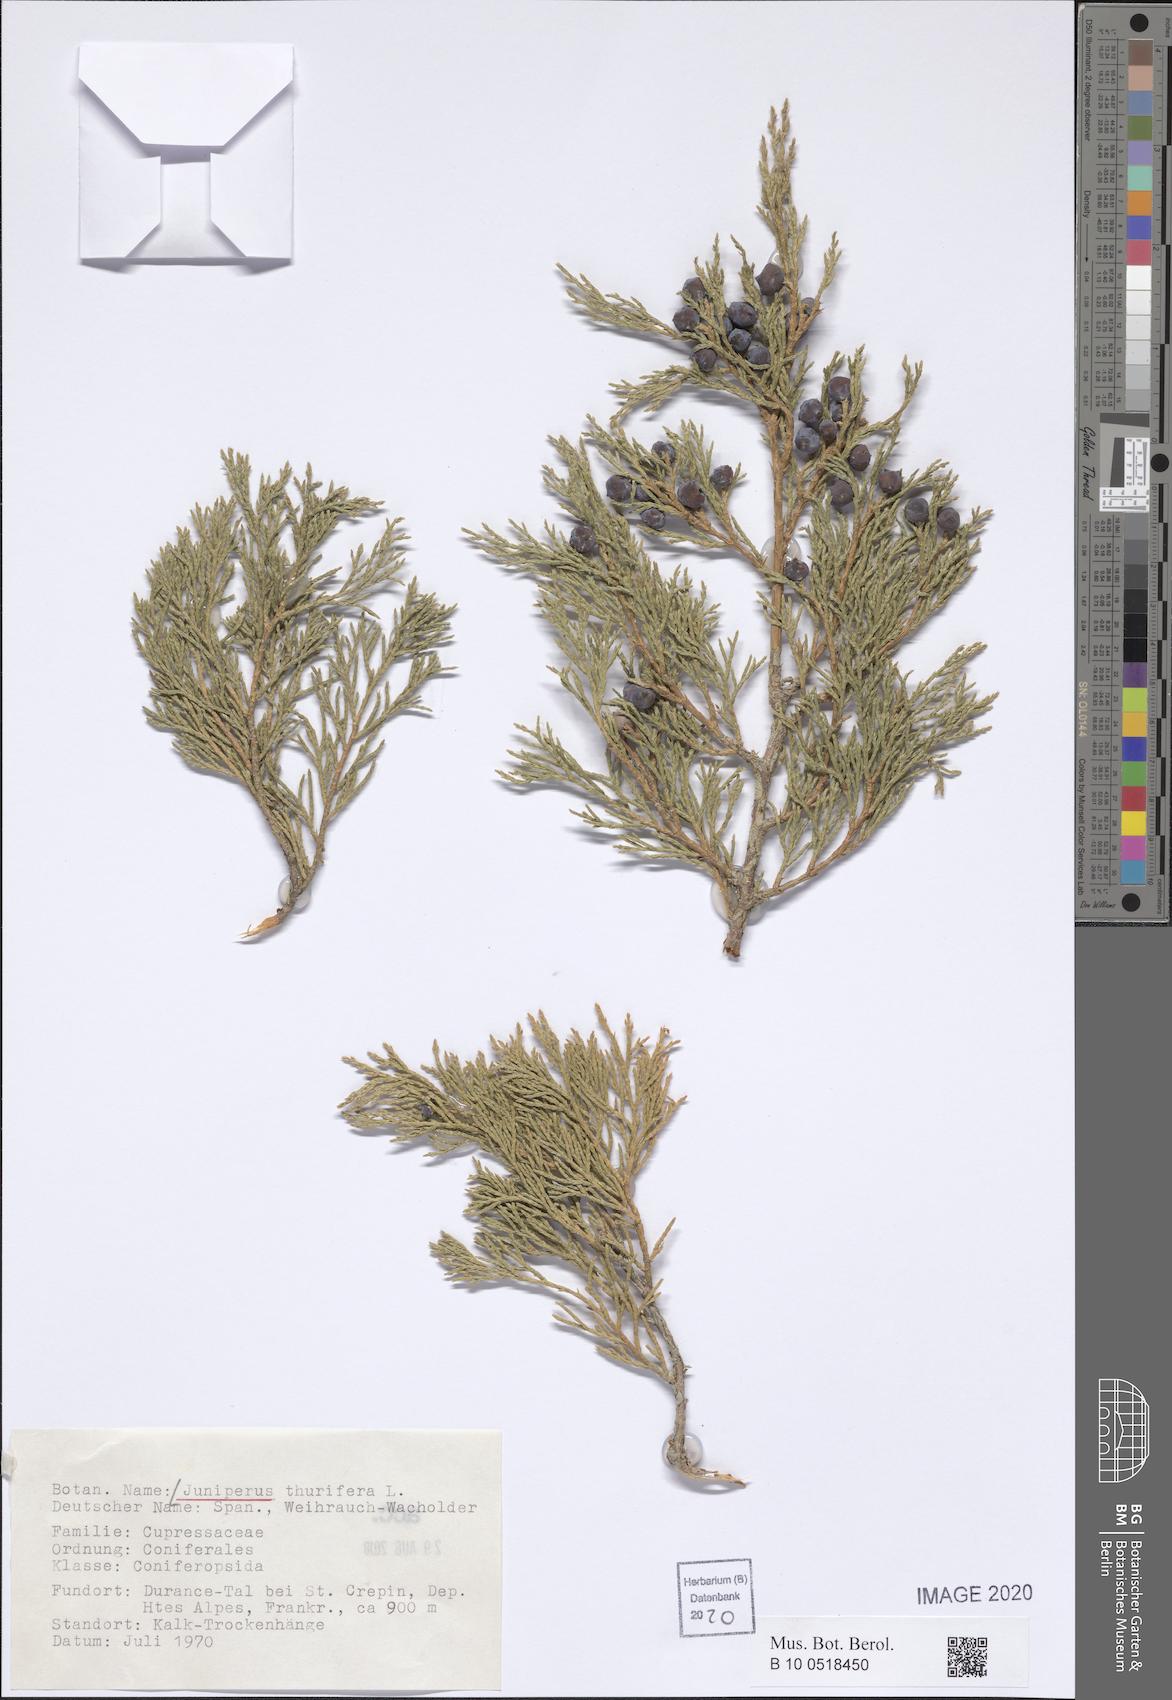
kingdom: Plantae
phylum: Tracheophyta
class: Pinopsida
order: Pinales
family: Cupressaceae
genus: Juniperus
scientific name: Juniperus thurifera
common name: Incense juniper
